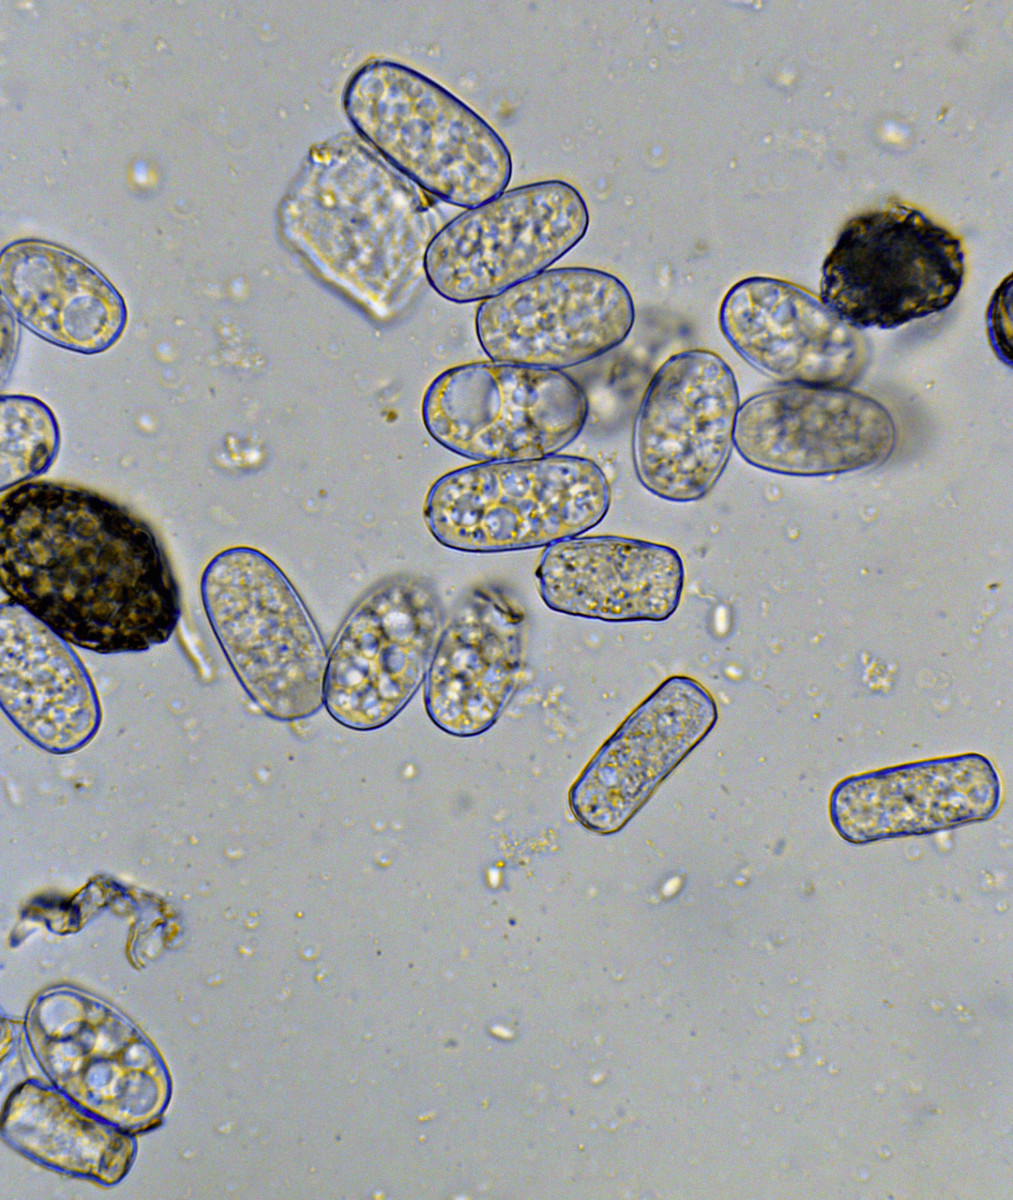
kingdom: Fungi
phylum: Ascomycota
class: Leotiomycetes
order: Helotiales
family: Erysiphaceae
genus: Golovinomyces
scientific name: Golovinomyces sordidus
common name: Plantain mildew
